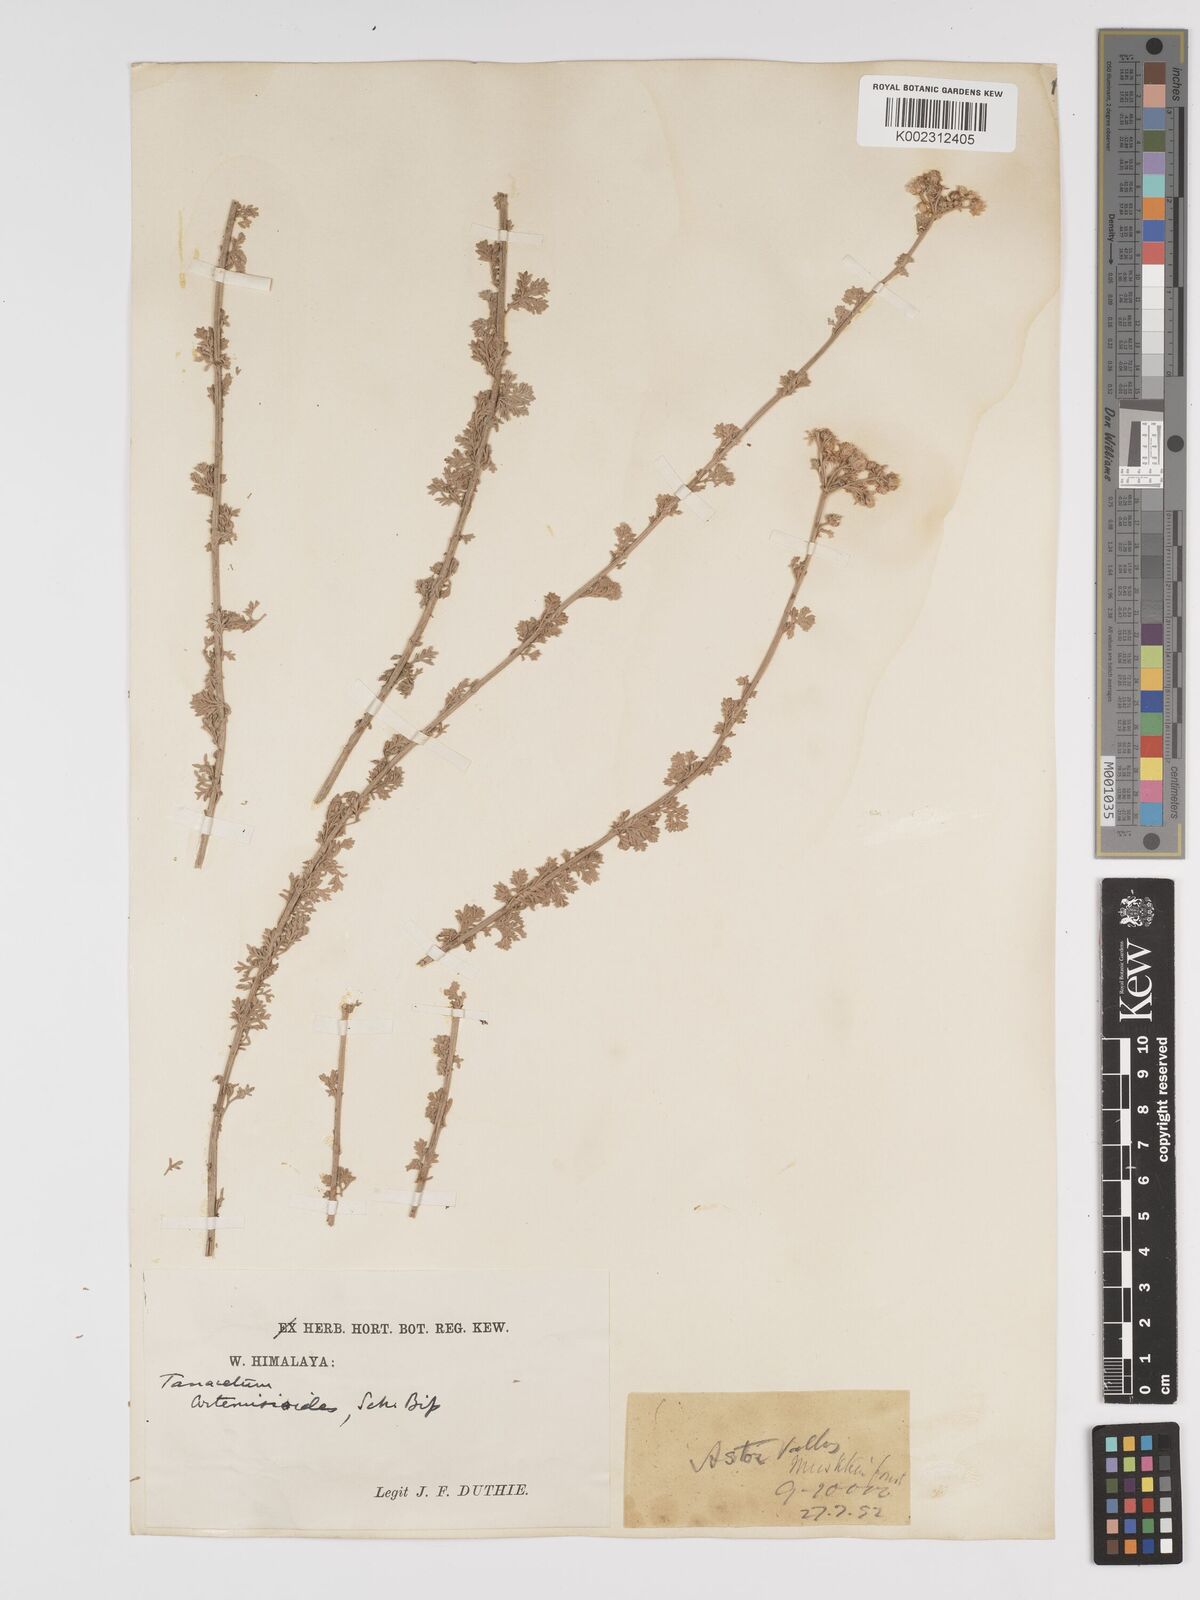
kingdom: Plantae
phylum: Tracheophyta
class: Magnoliopsida
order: Asterales
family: Asteraceae
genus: Tanacetum
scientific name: Tanacetum artemisioides
